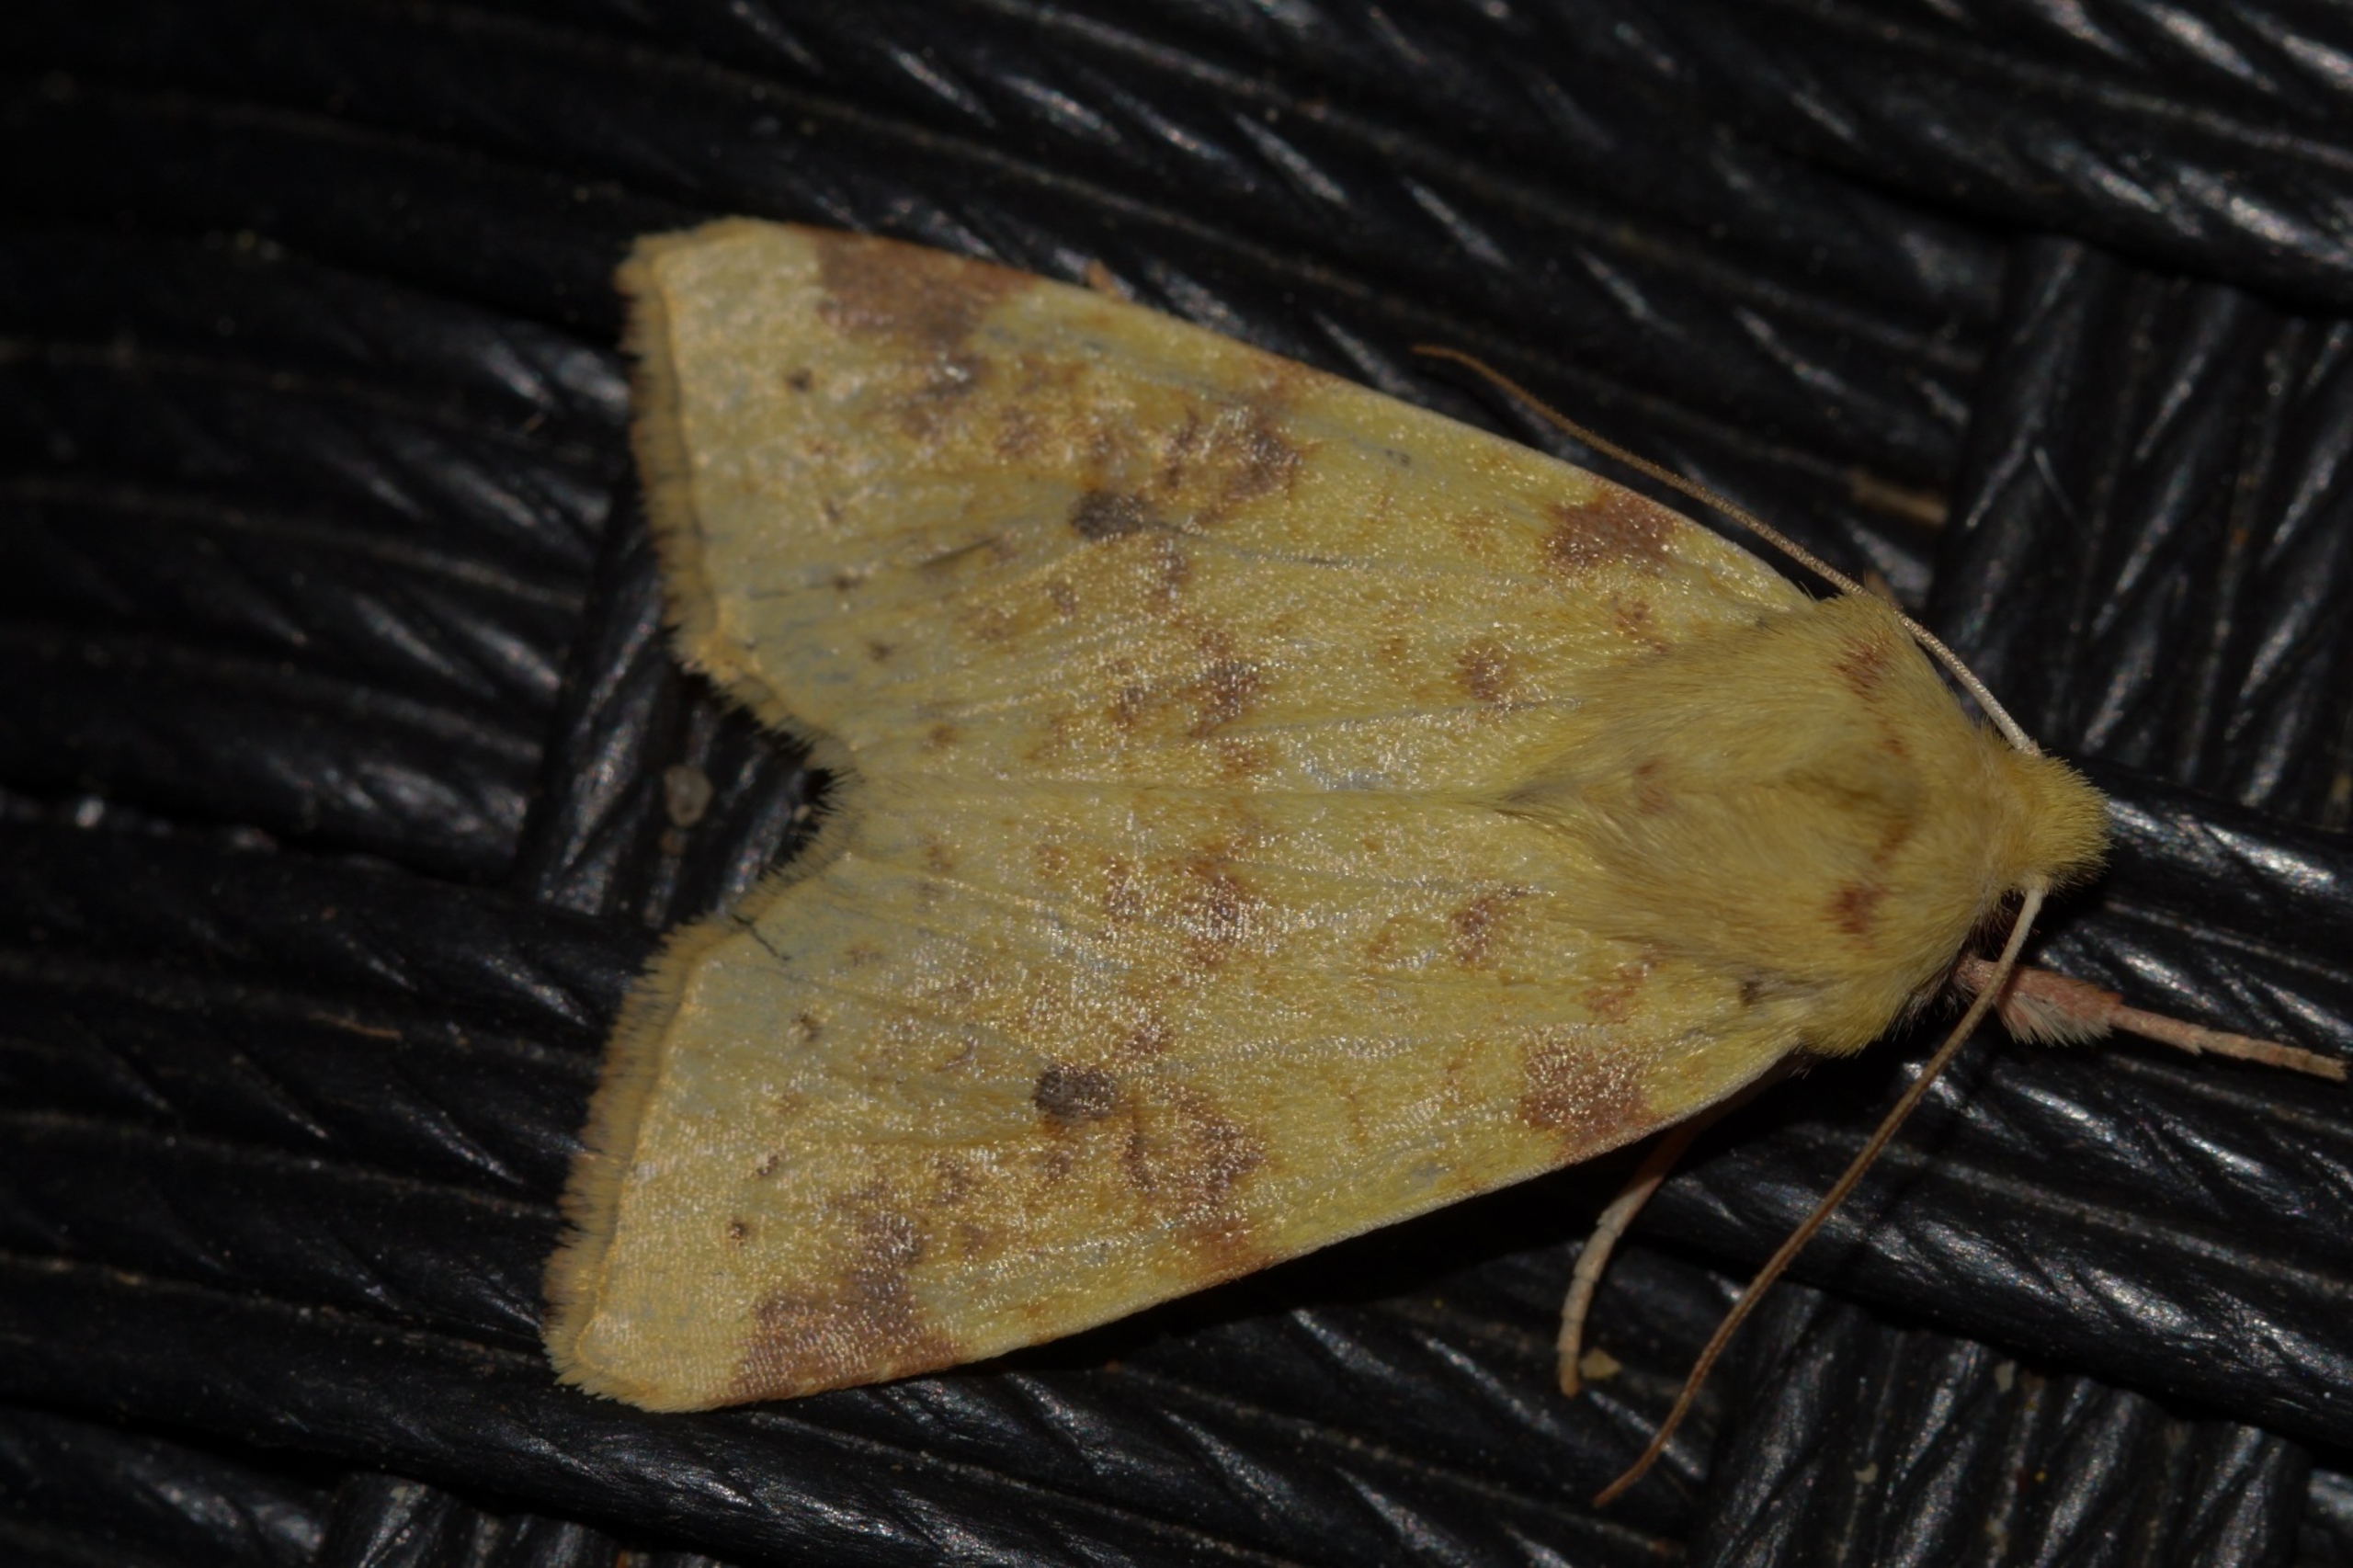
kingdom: Animalia
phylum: Arthropoda
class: Insecta
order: Lepidoptera
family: Noctuidae
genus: Xanthia
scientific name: Xanthia Cirrhia icteritia
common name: Brombær-guldugle
